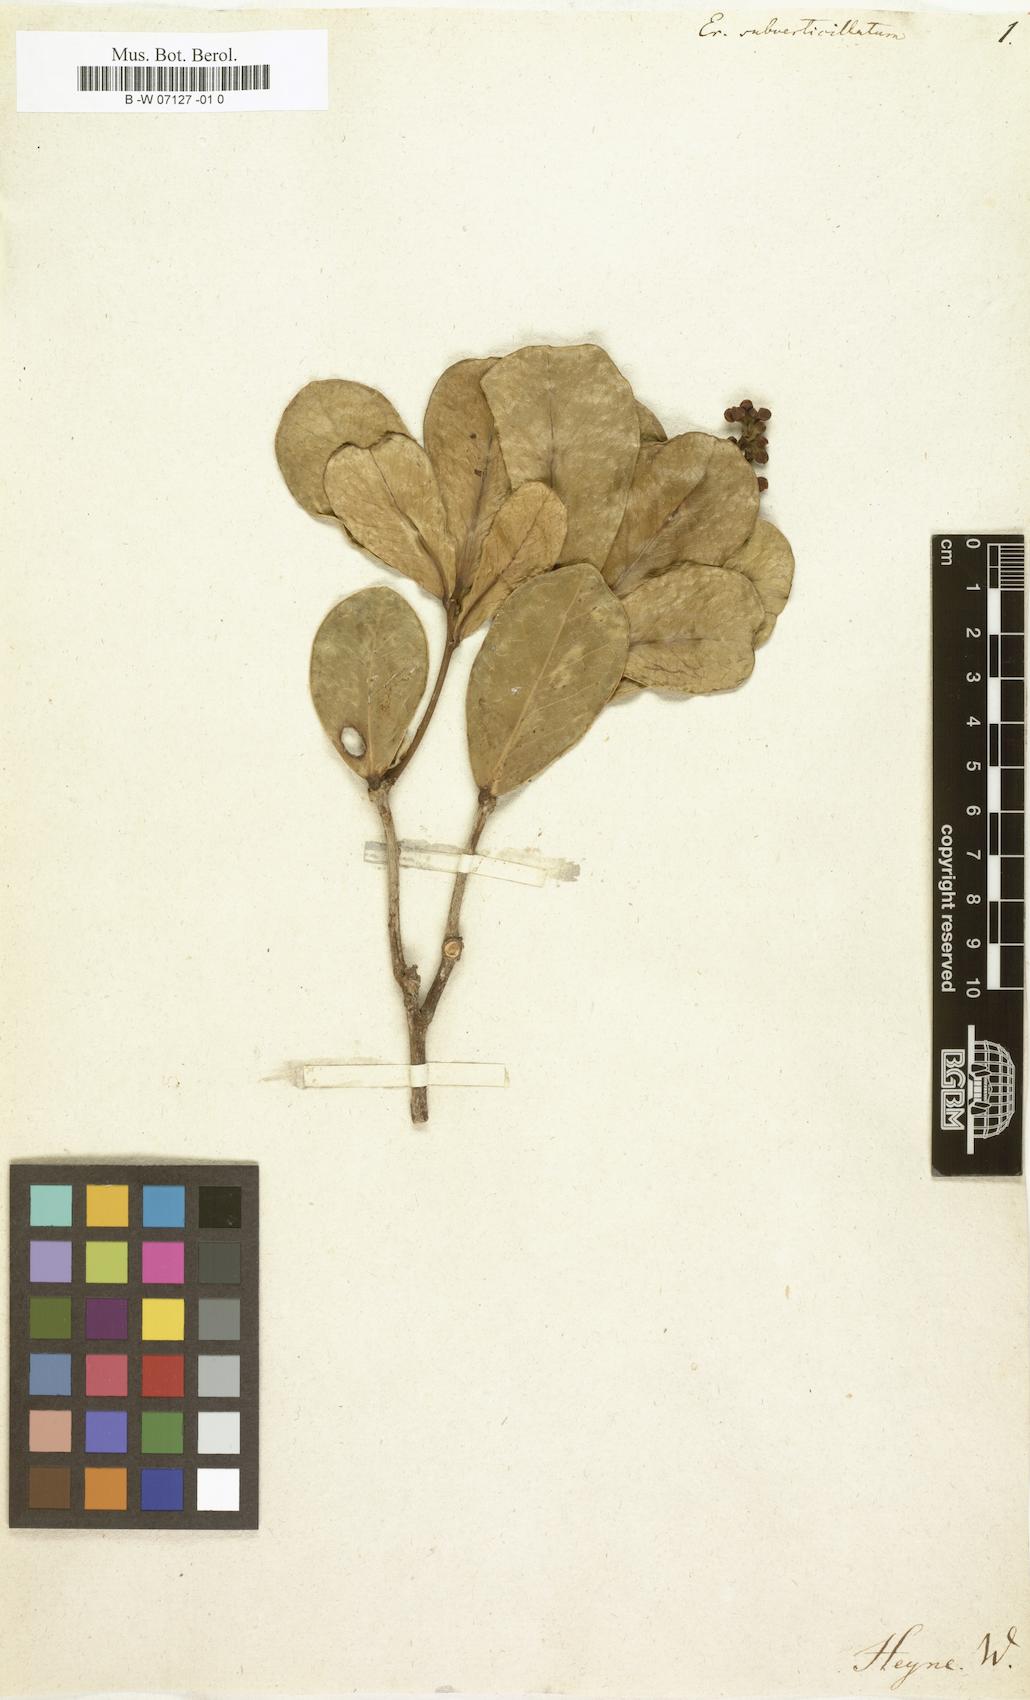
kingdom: Plantae
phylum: Tracheophyta
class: Magnoliopsida
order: Malpighiales
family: Achariaceae
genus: Erythrospermum
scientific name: Erythrospermum
